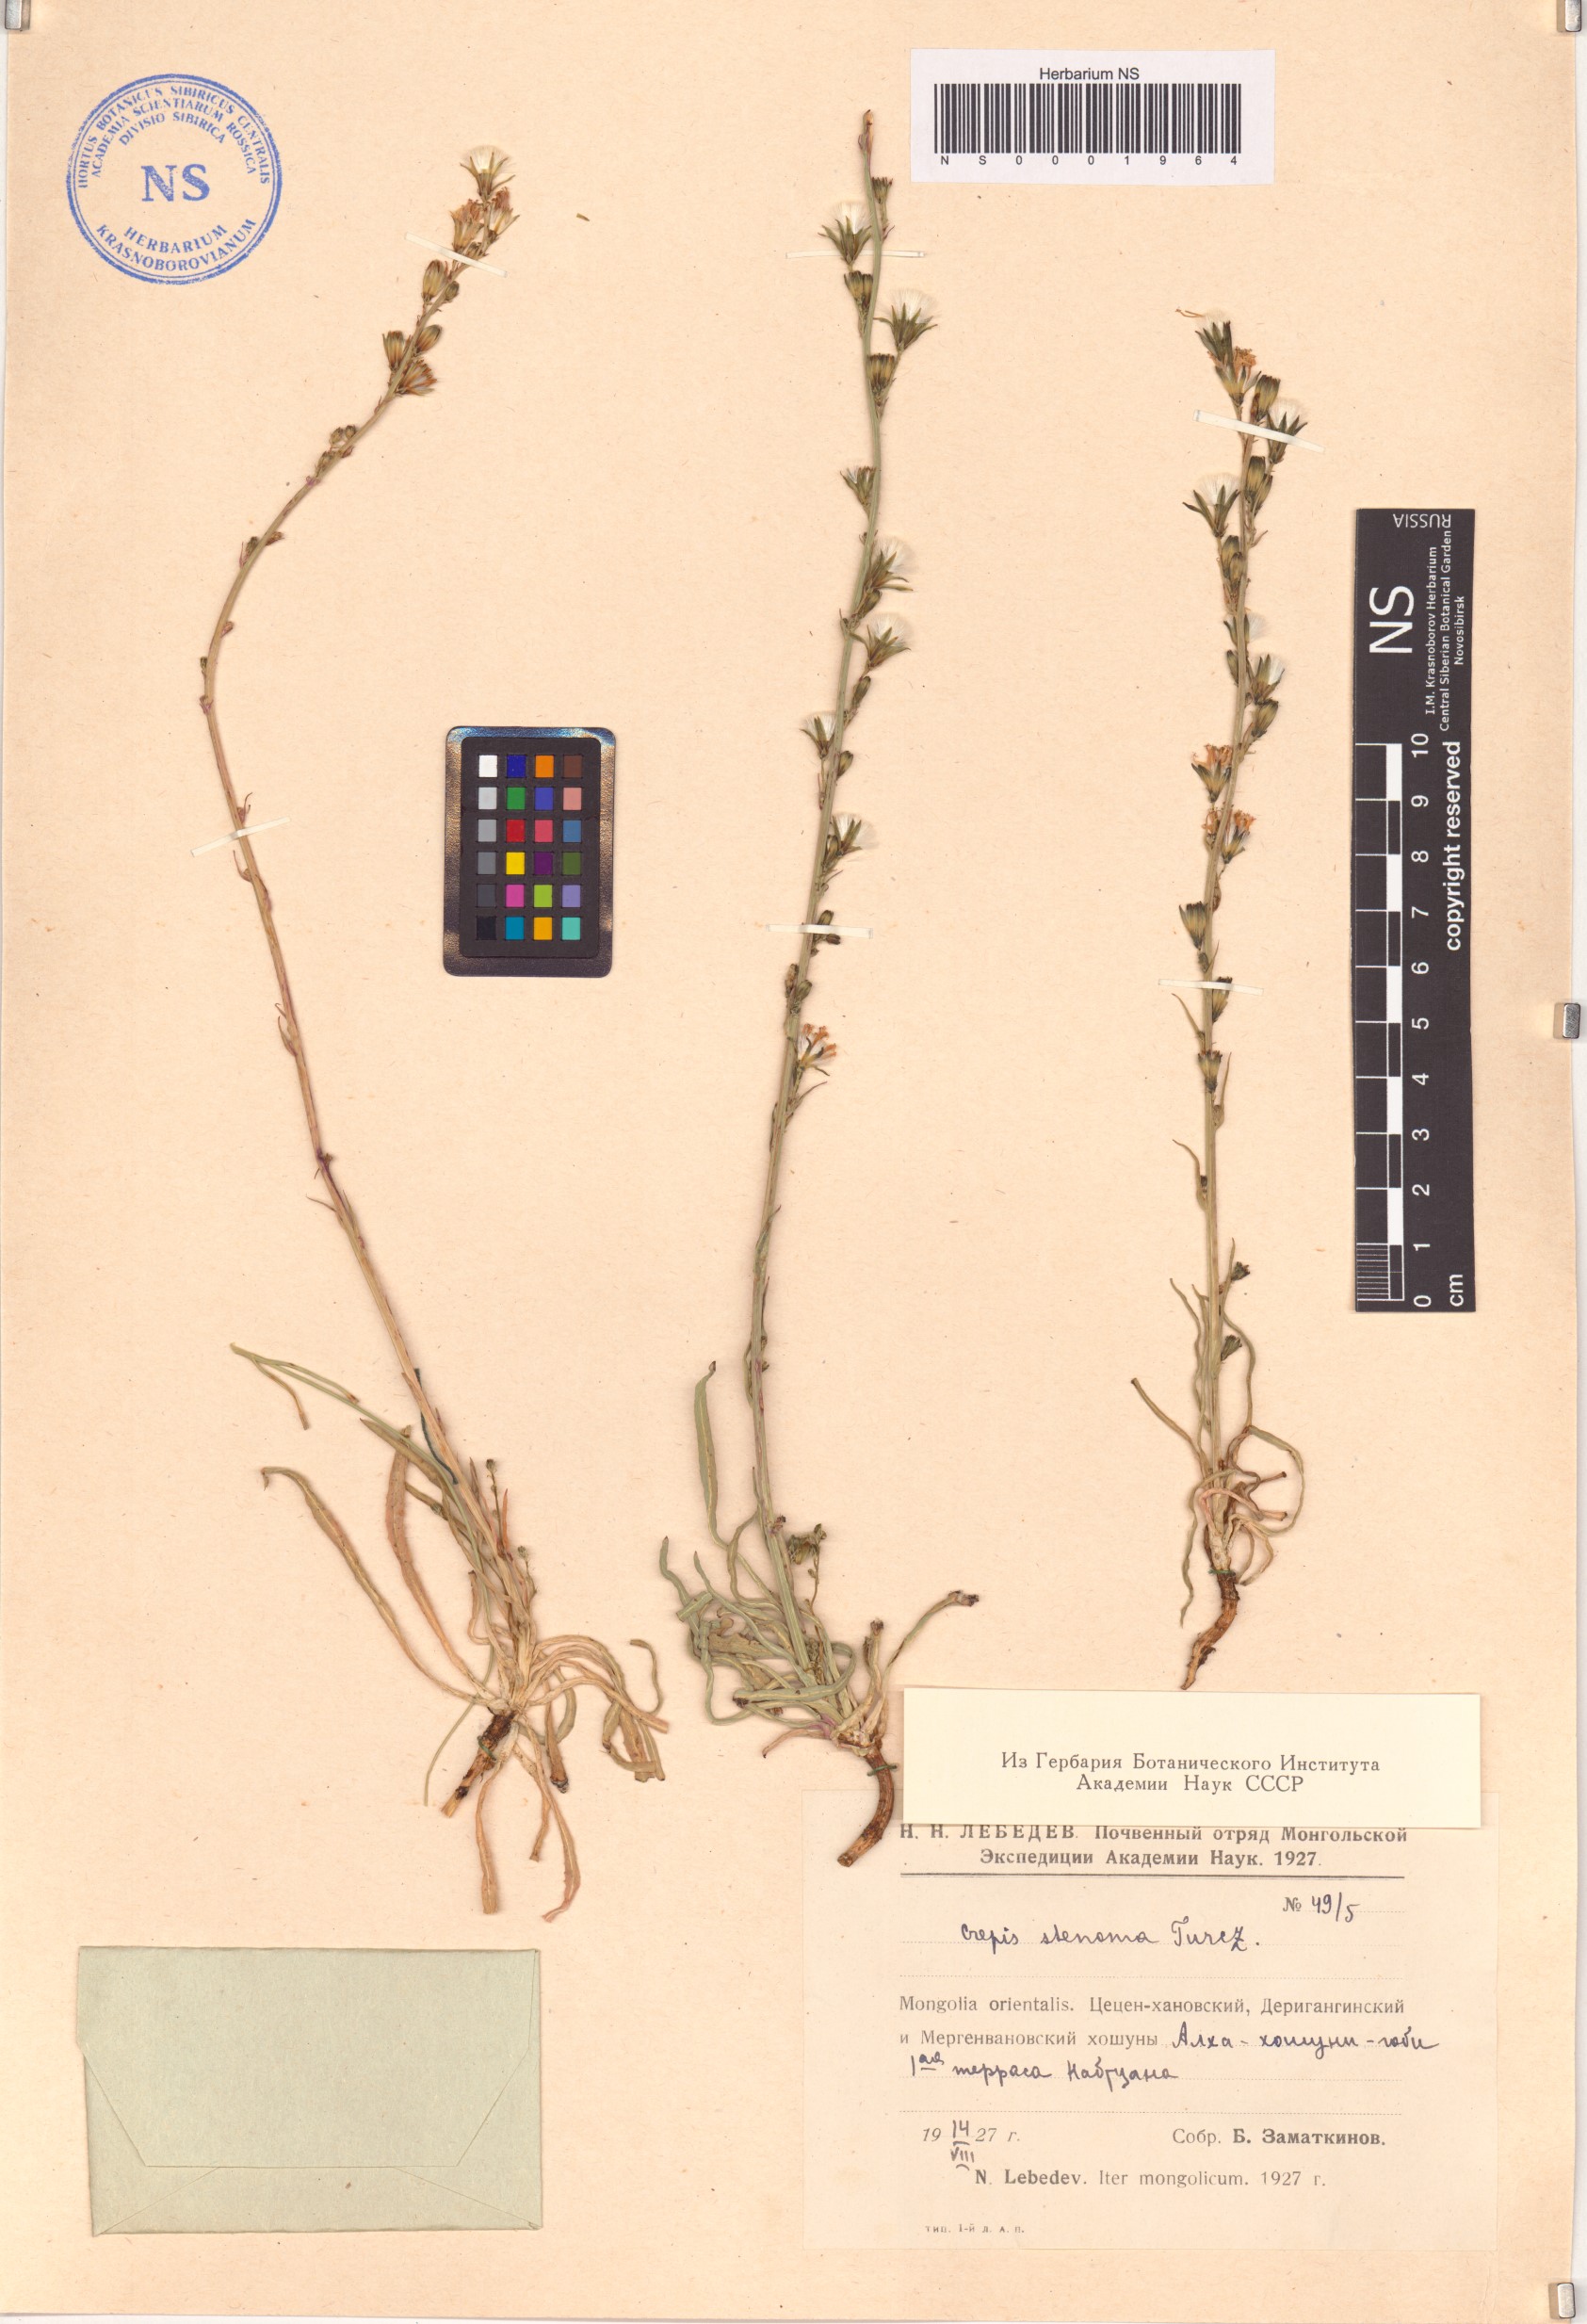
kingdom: Plantae
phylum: Tracheophyta
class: Magnoliopsida
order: Asterales
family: Asteraceae
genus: Sonchella
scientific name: Sonchella stenoma
